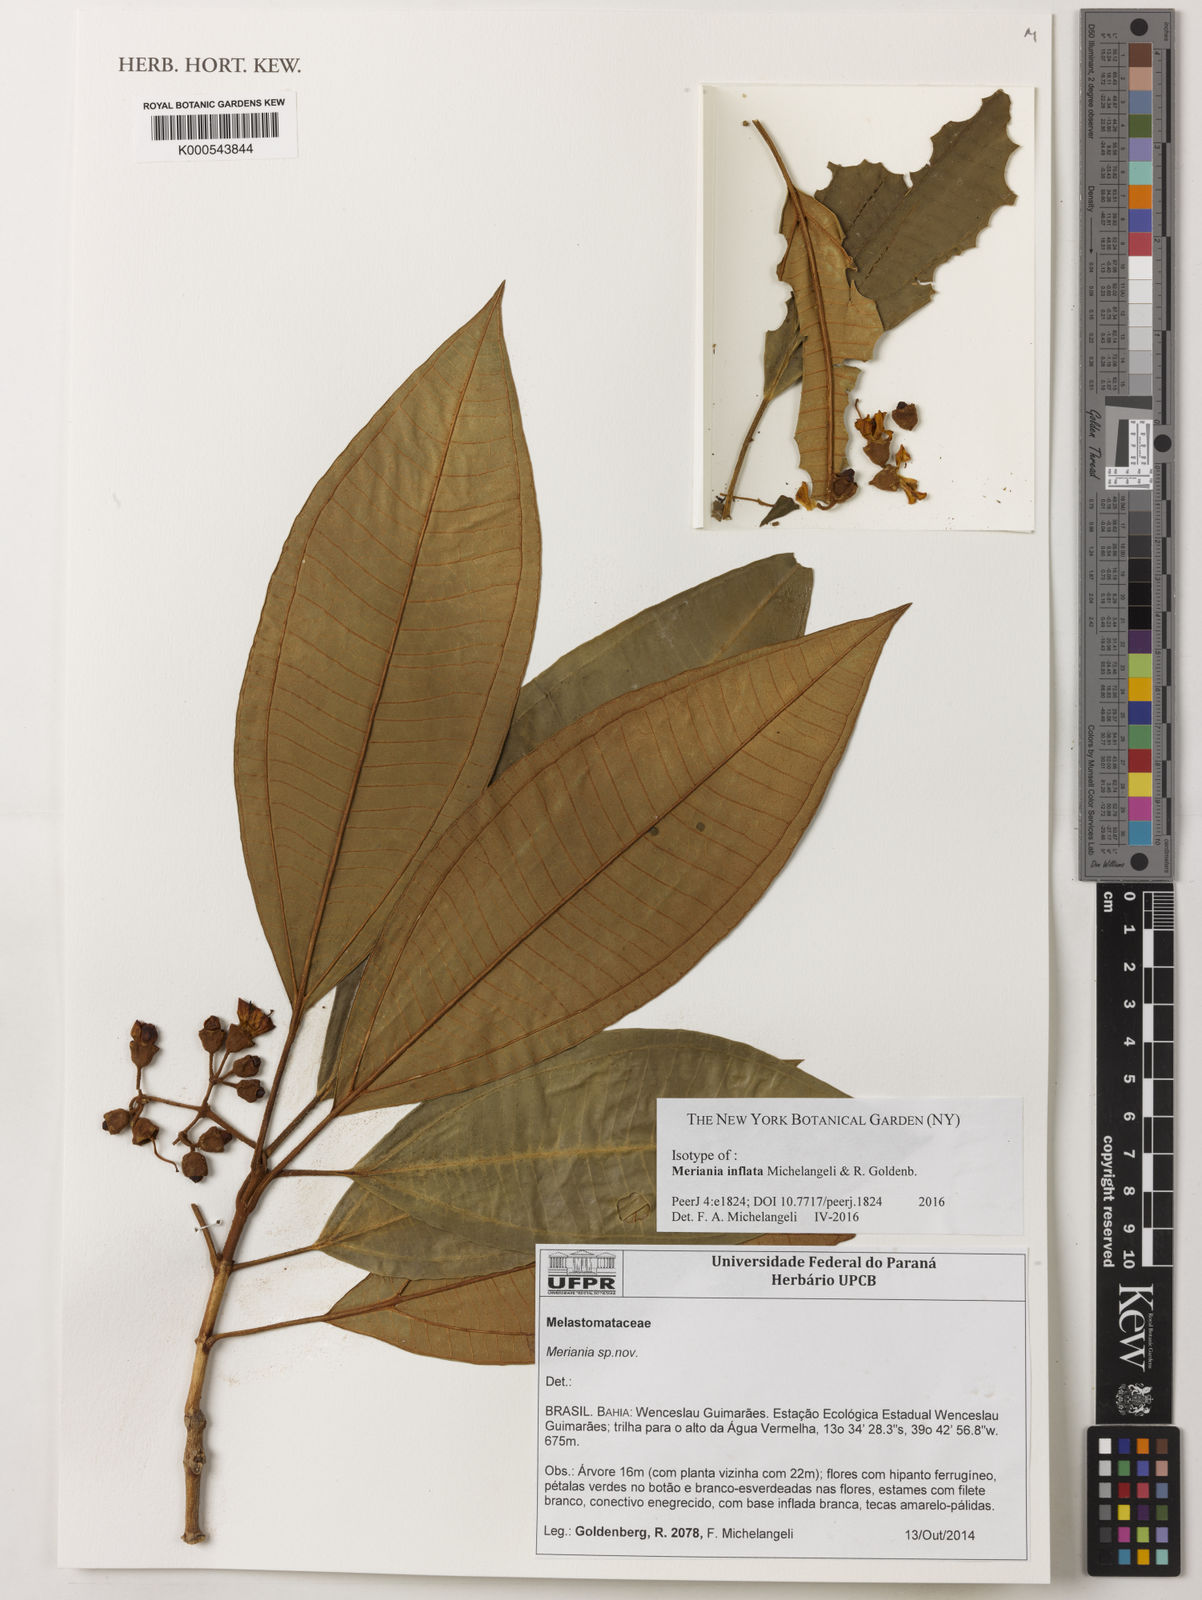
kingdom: Plantae
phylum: Tracheophyta
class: Magnoliopsida
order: Myrtales
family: Melastomataceae
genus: Meriania
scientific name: Meriania inflata
